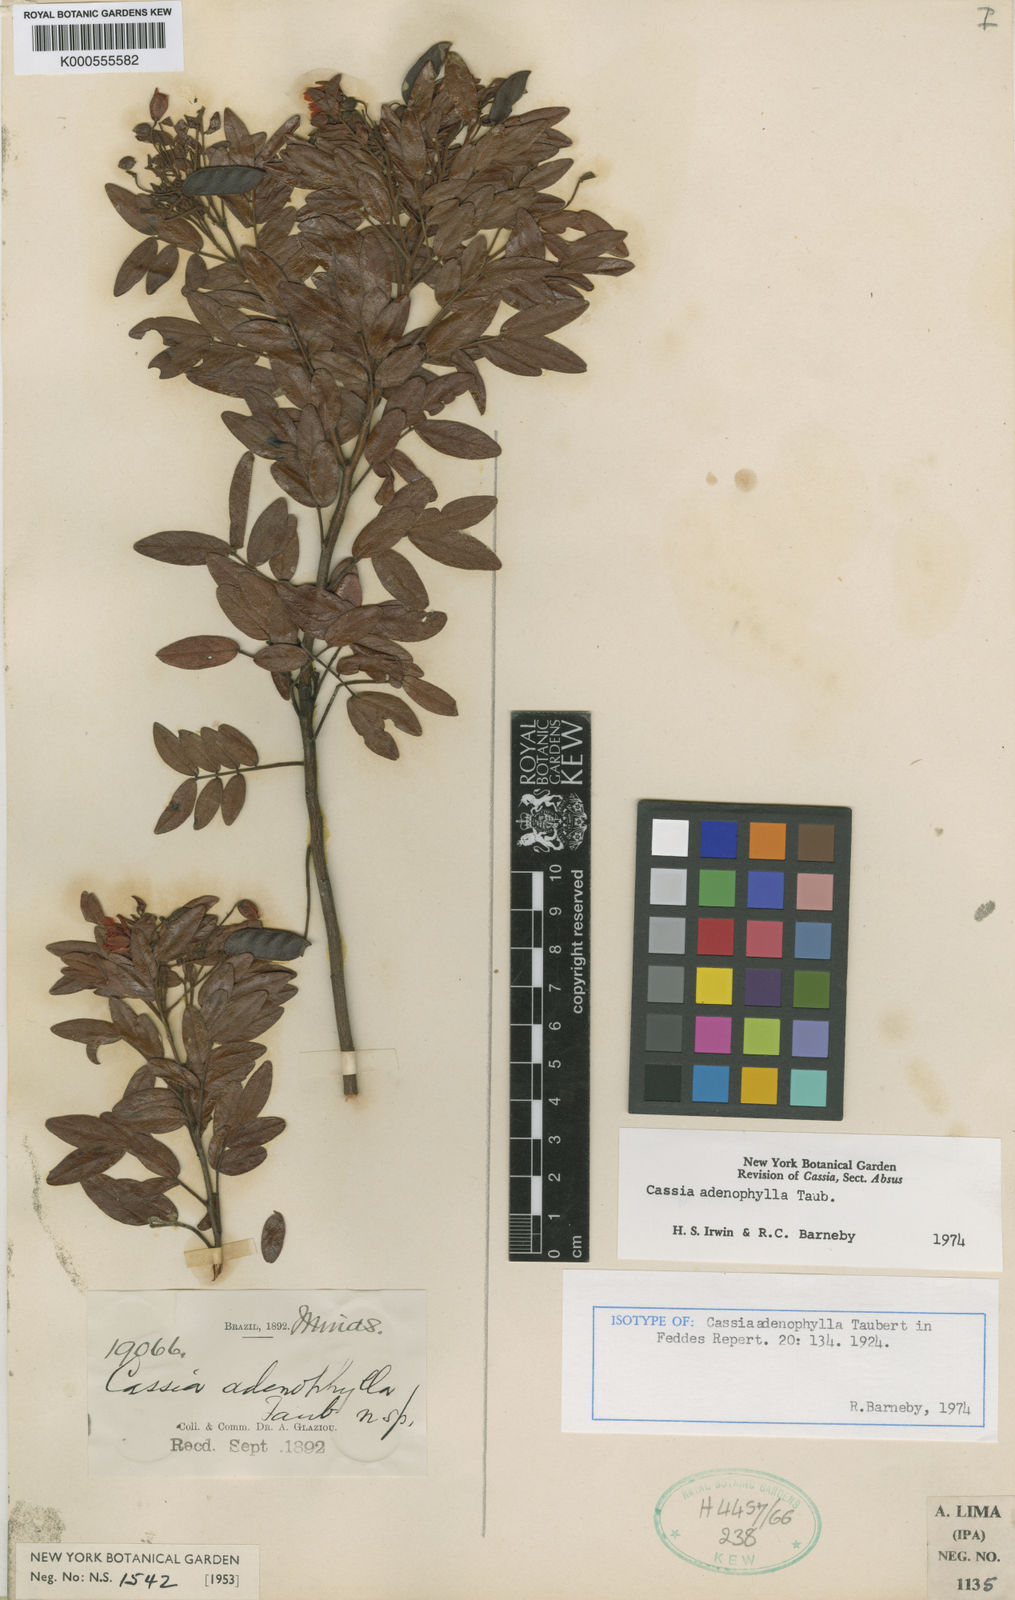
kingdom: Plantae
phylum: Tracheophyta
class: Magnoliopsida
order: Fabales
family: Fabaceae
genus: Chamaecrista
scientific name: Chamaecrista adenophylla
